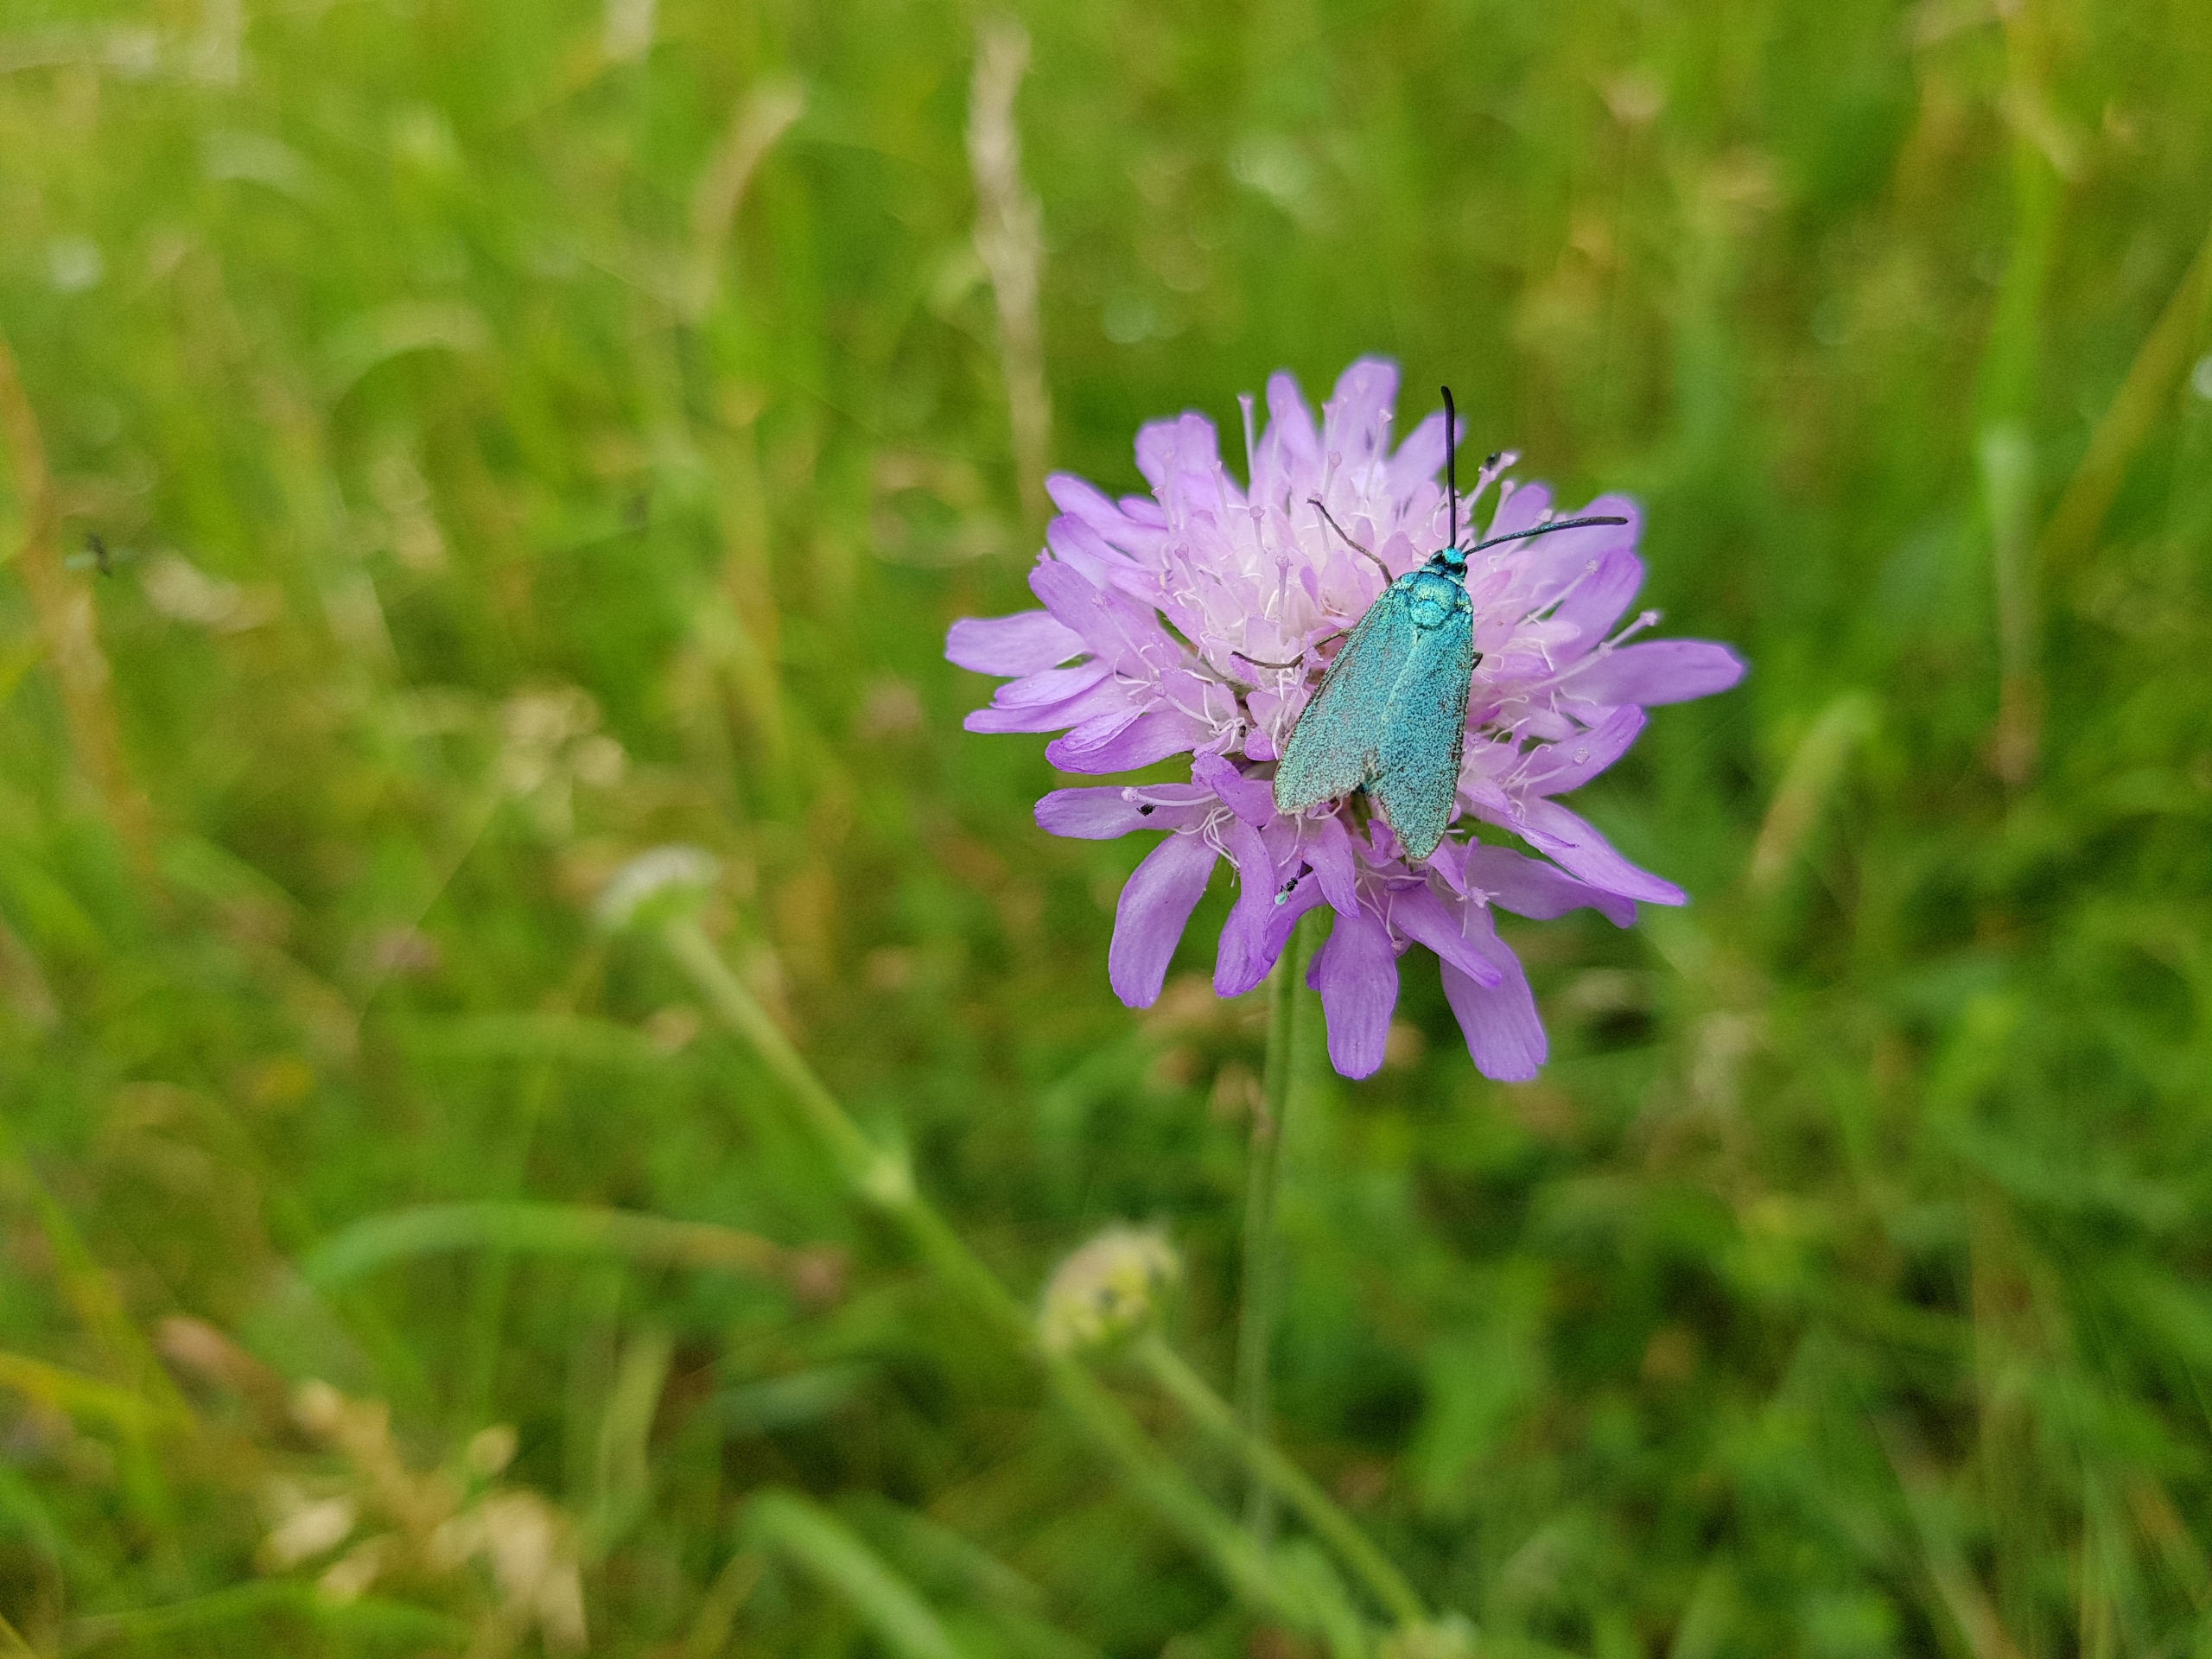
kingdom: Animalia
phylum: Arthropoda
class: Insecta
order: Lepidoptera
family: Zygaenidae
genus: Adscita
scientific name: Adscita statices
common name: Metalvinge
